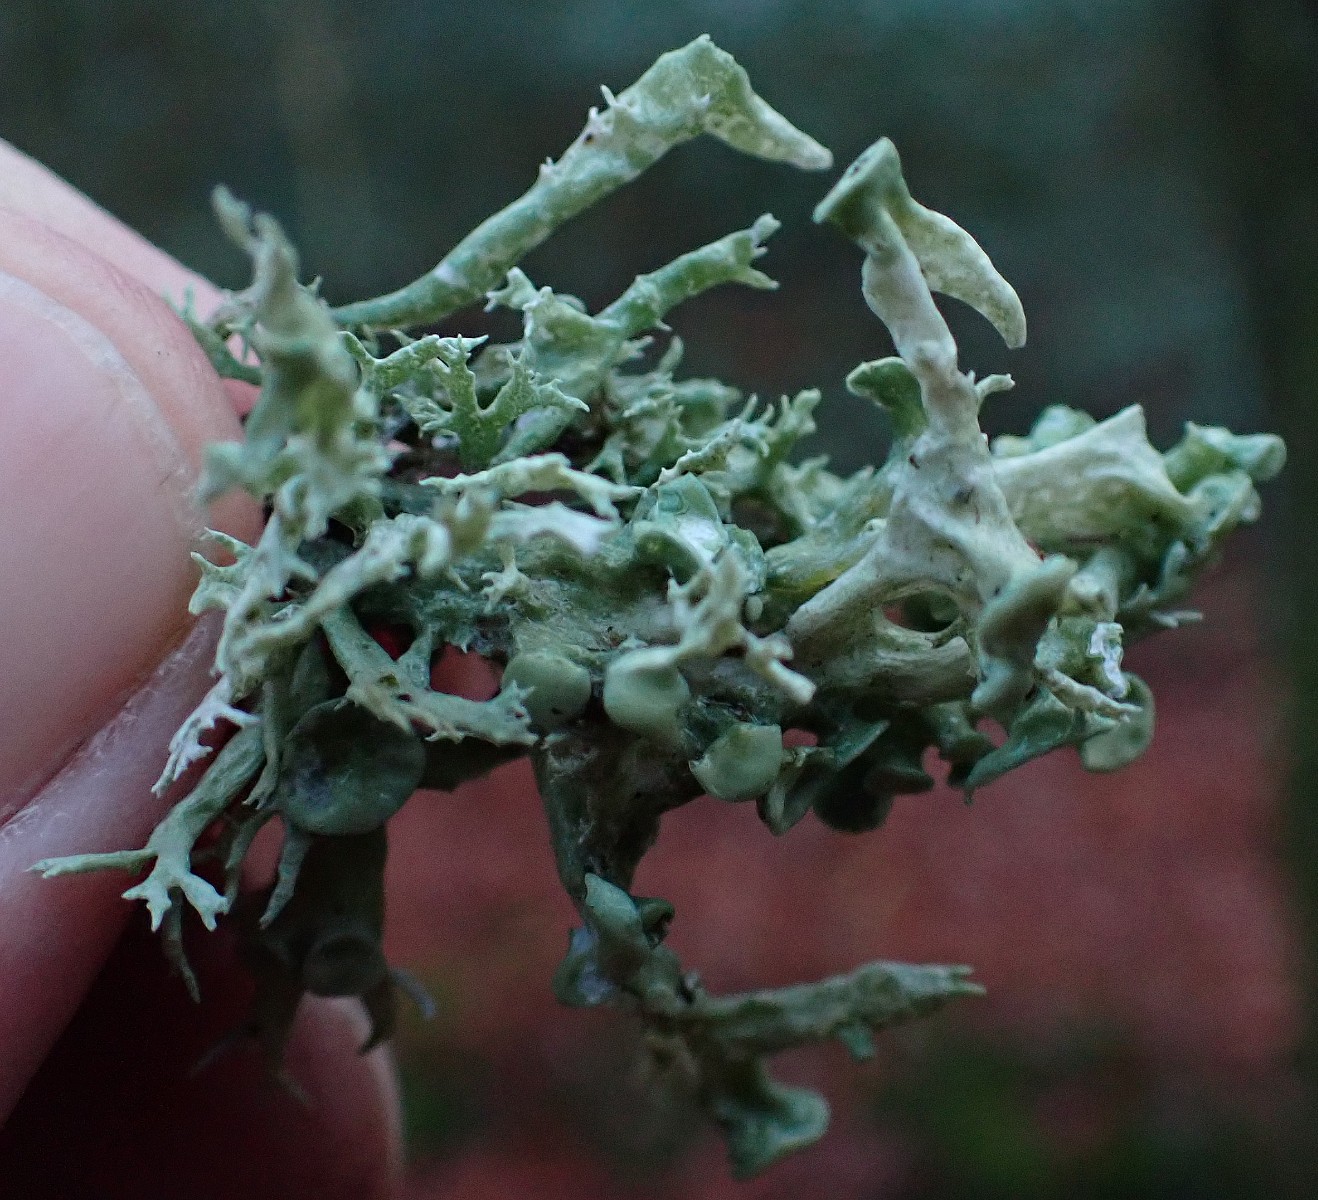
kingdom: Fungi
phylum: Ascomycota
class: Lecanoromycetes
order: Lecanorales
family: Ramalinaceae
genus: Ramalina
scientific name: Ramalina fastigiata
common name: tue-grenlav
